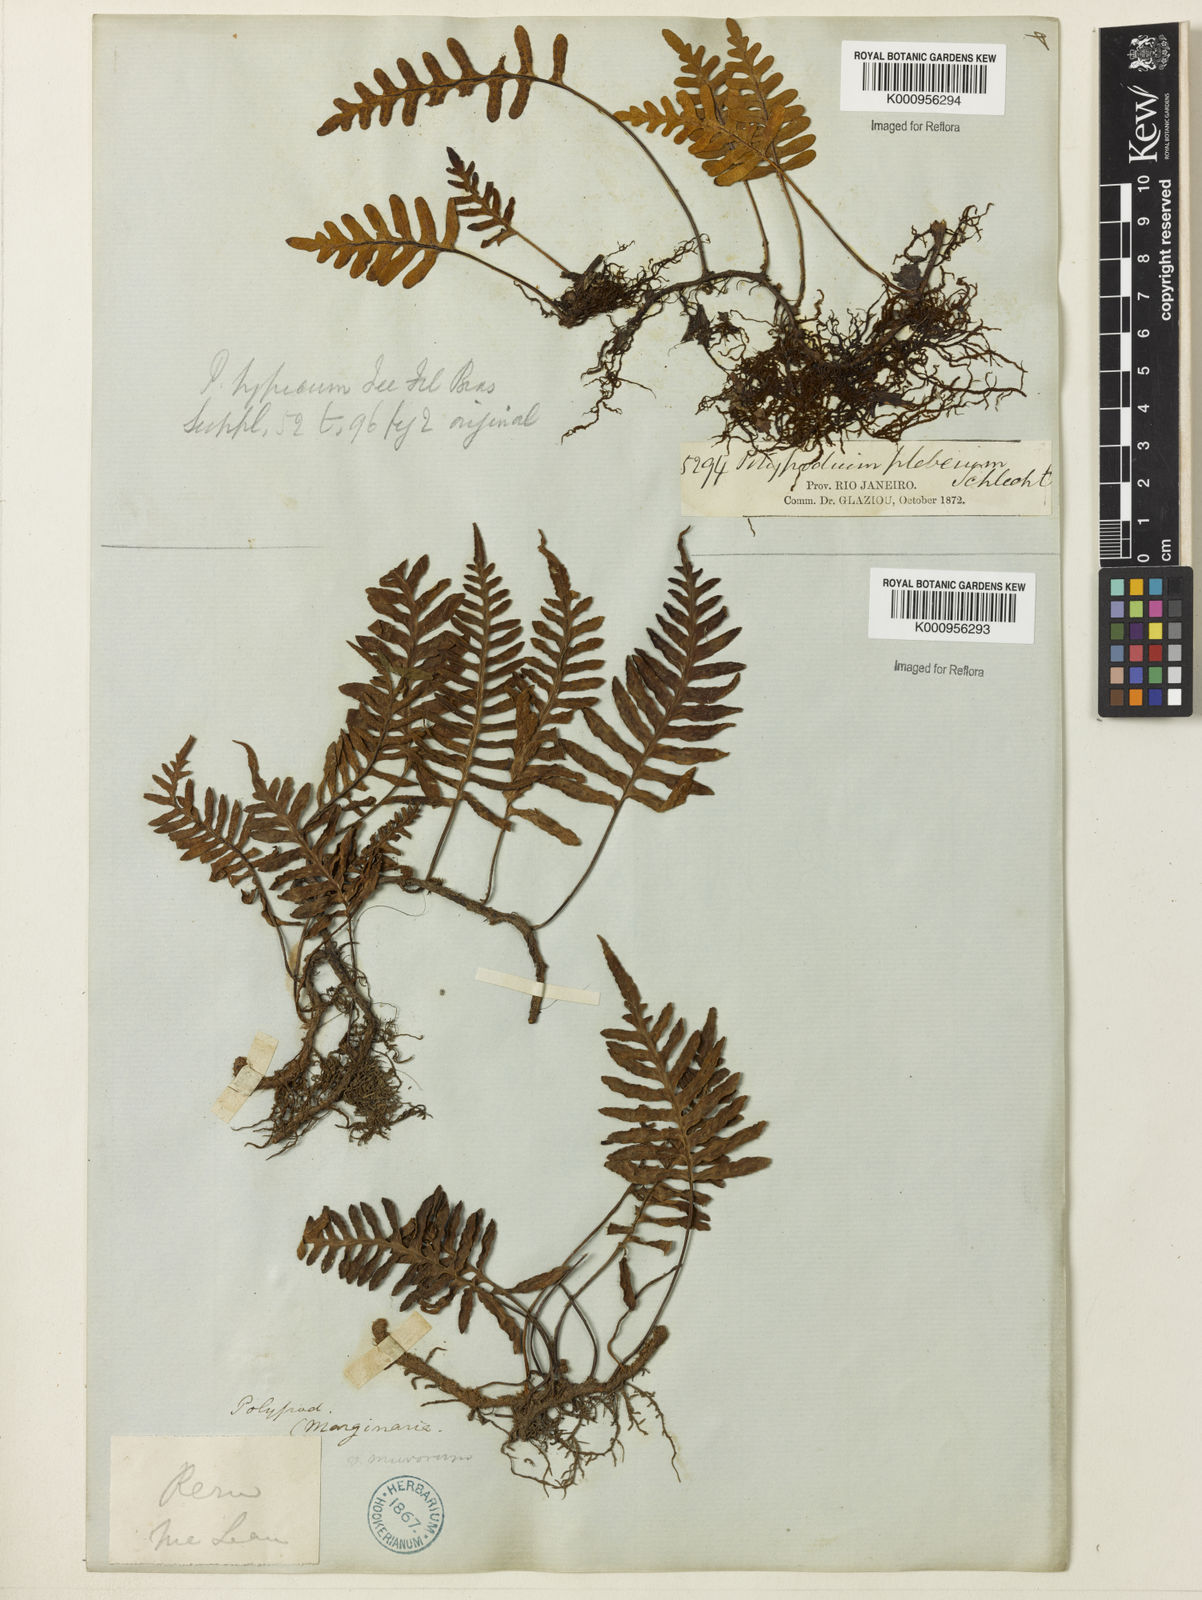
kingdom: Plantae
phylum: Tracheophyta
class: Polypodiopsida
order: Polypodiales
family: Polypodiaceae
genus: Polypodium
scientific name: Polypodium
